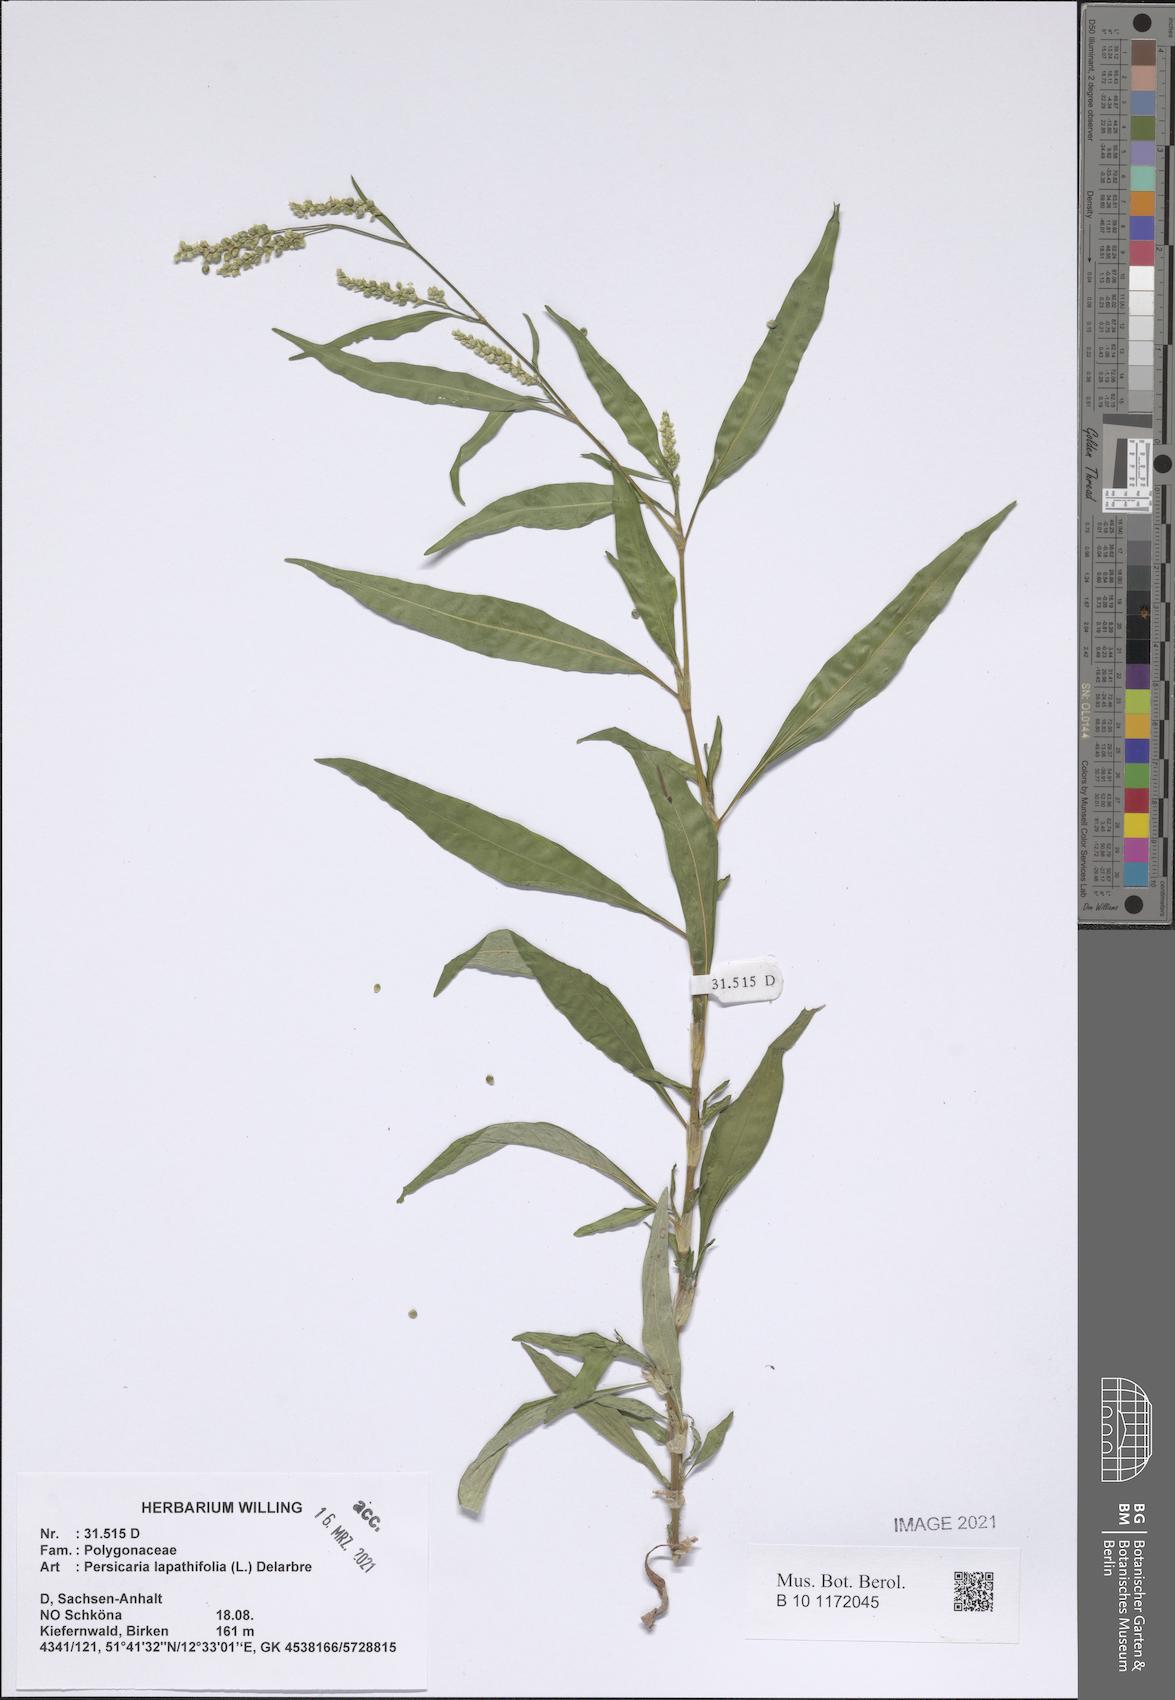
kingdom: Plantae
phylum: Tracheophyta
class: Magnoliopsida
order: Caryophyllales
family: Polygonaceae
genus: Persicaria
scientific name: Persicaria lapathifolia
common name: Curlytop knotweed
